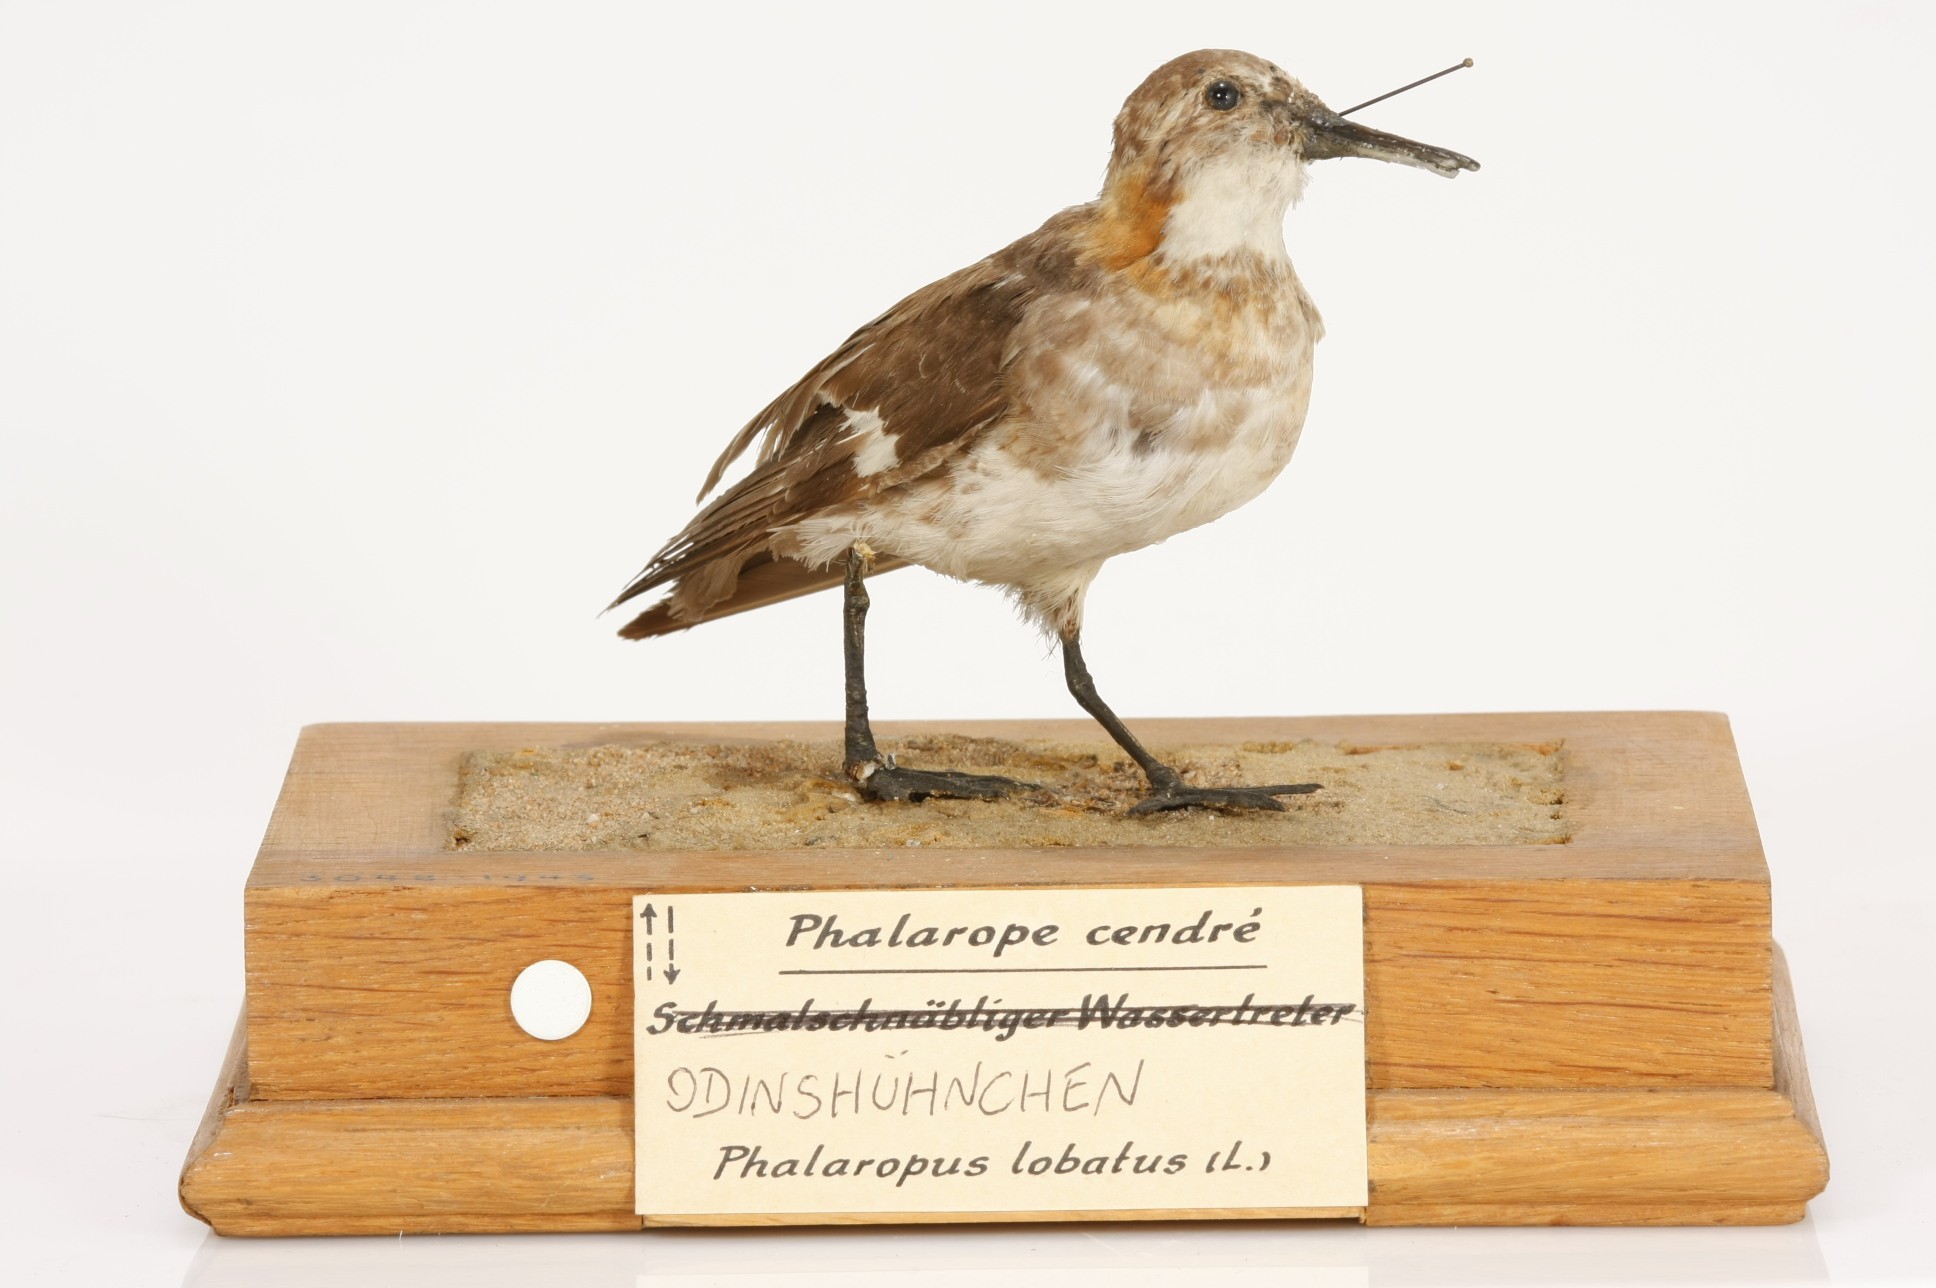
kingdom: Animalia
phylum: Chordata
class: Aves
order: Charadriiformes
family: Scolopacidae
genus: Phalaropus
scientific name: Phalaropus lobatus
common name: Red-necked phalarope
